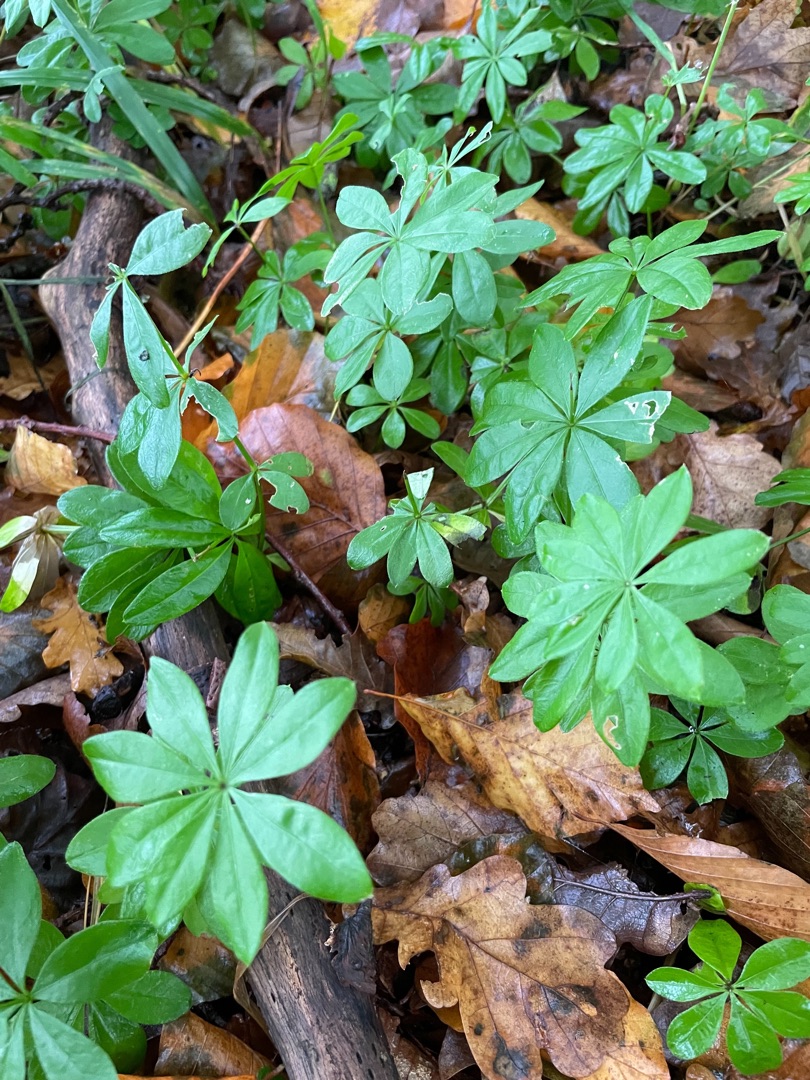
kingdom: Plantae
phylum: Tracheophyta
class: Magnoliopsida
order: Gentianales
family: Rubiaceae
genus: Galium
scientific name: Galium odoratum
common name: Skovmærke
